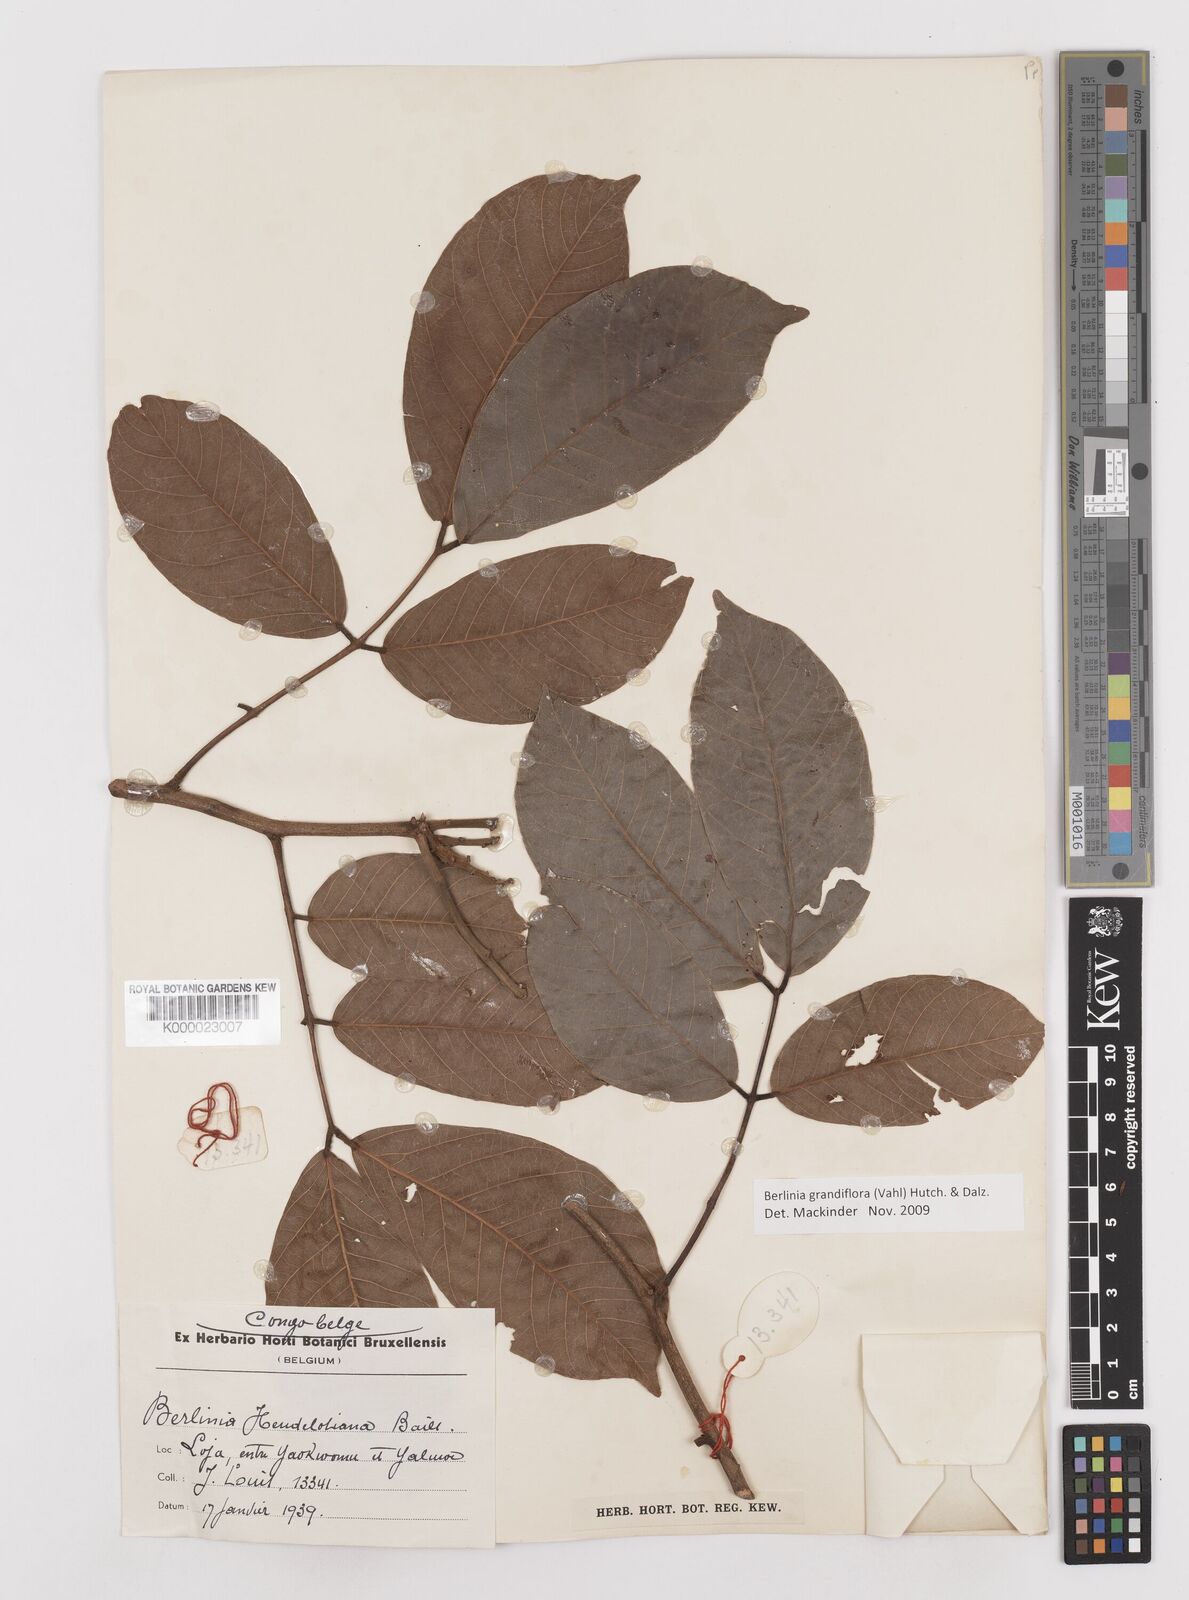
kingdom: Plantae
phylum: Tracheophyta
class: Magnoliopsida
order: Fabales
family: Fabaceae
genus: Berlinia
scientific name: Berlinia grandiflora
